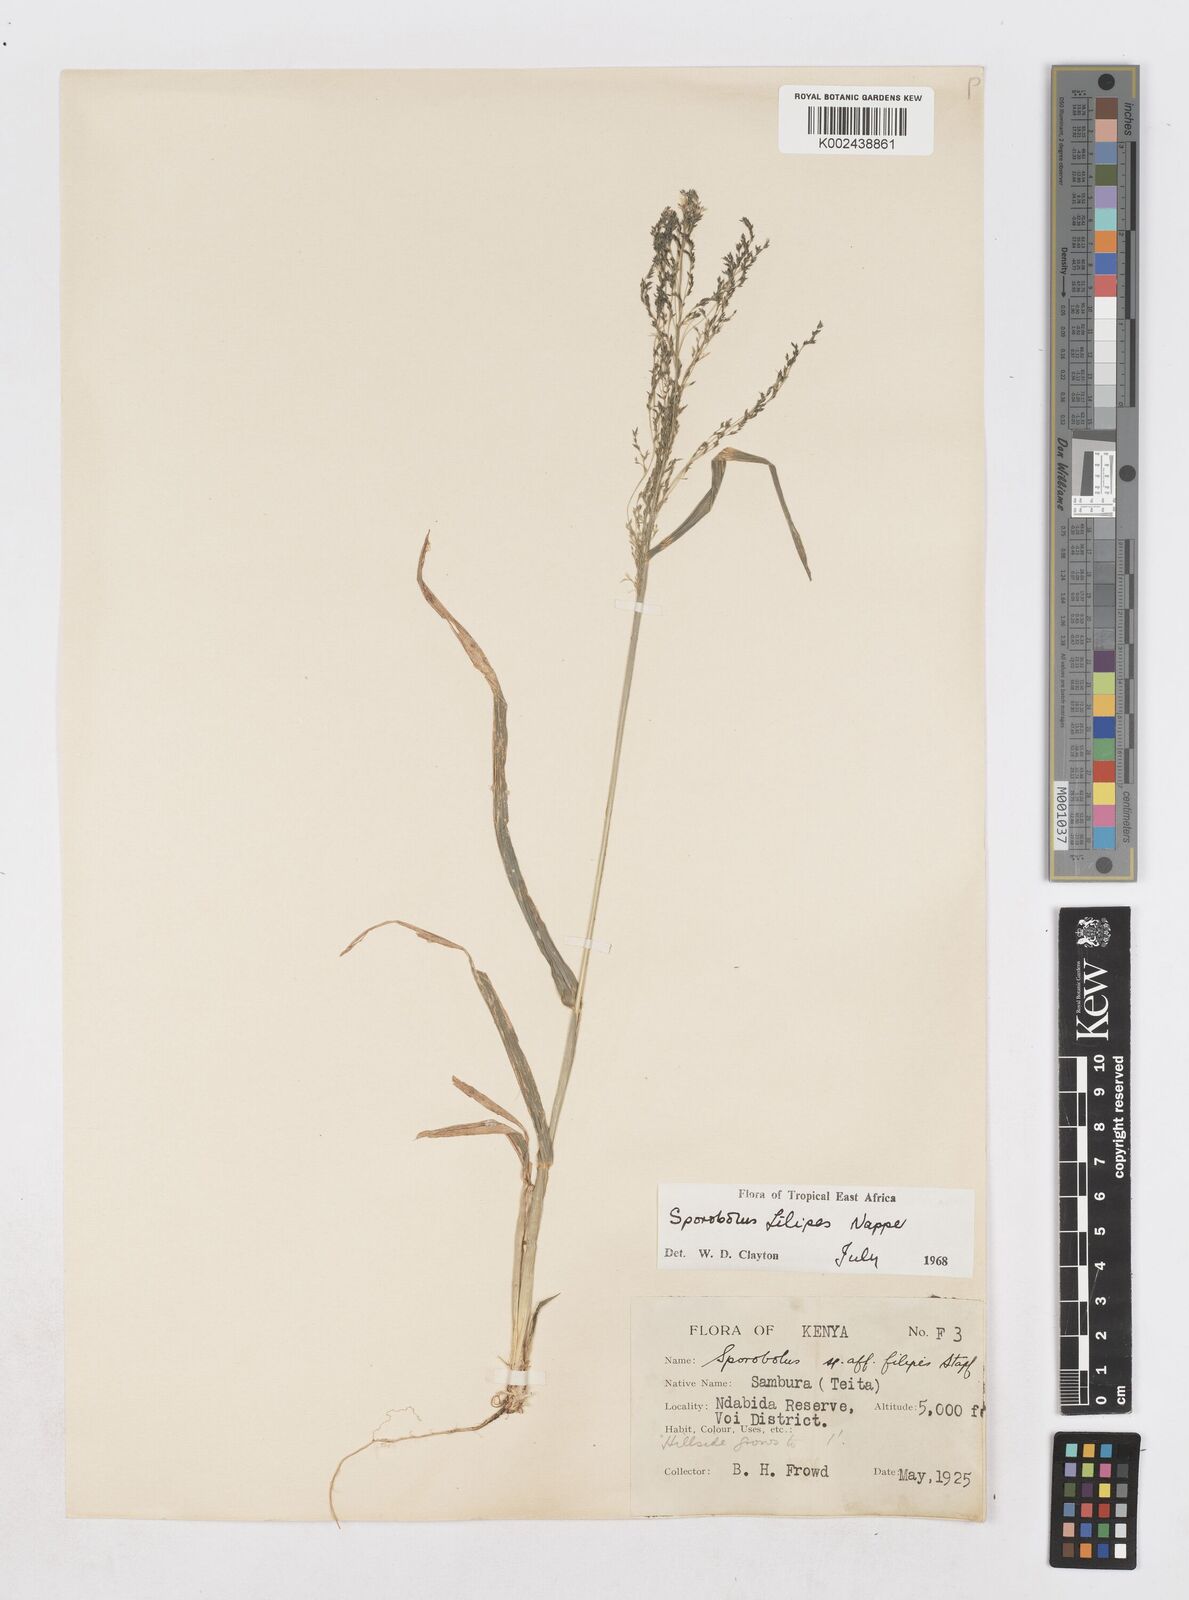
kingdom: Plantae
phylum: Tracheophyta
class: Liliopsida
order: Poales
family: Poaceae
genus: Sporobolus
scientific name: Sporobolus agrostoides
